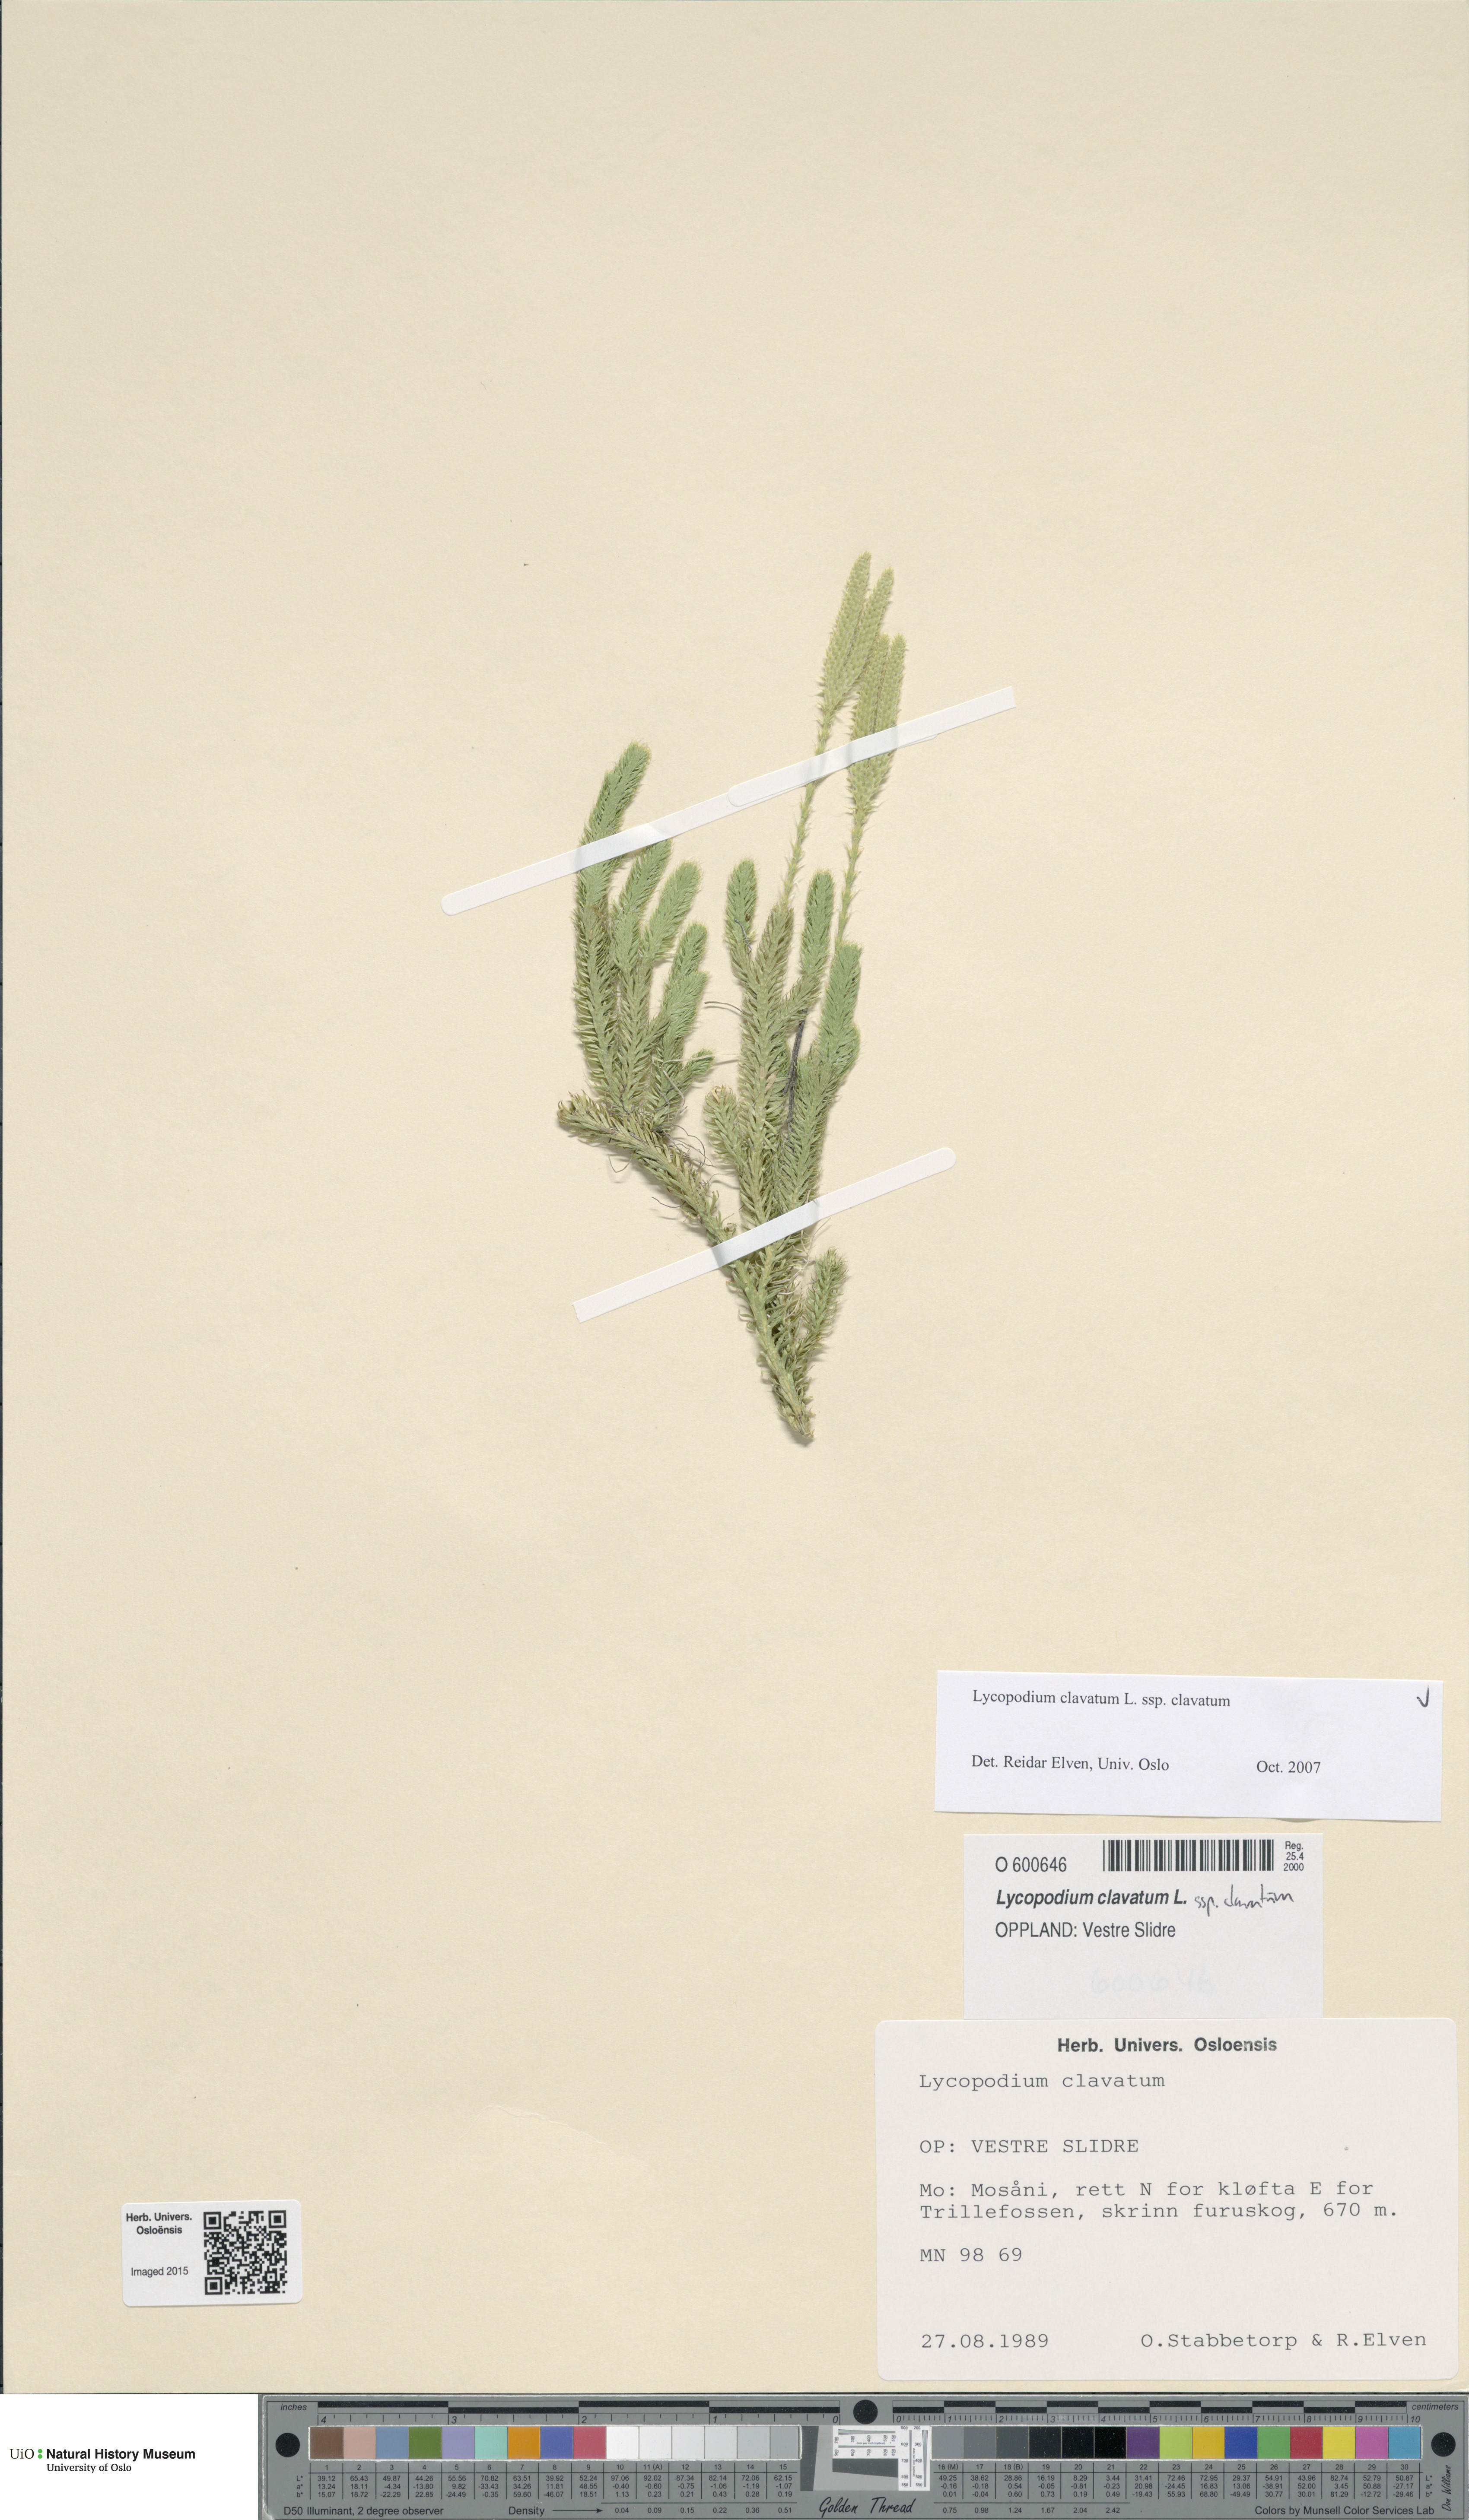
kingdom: Plantae
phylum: Tracheophyta
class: Lycopodiopsida
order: Lycopodiales
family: Lycopodiaceae
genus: Lycopodium
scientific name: Lycopodium clavatum
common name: Stag's-horn clubmoss
